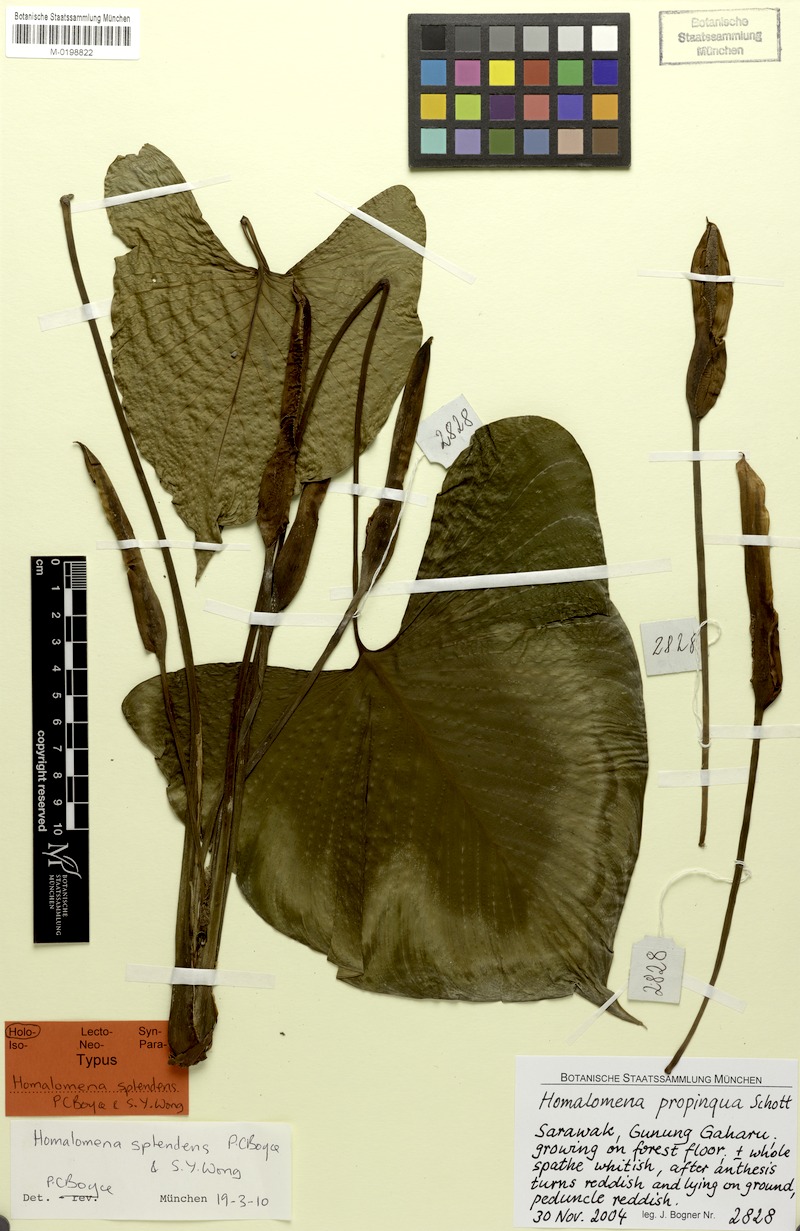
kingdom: Plantae
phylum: Tracheophyta
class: Liliopsida
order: Alismatales
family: Araceae
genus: Homalomena
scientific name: Homalomena
